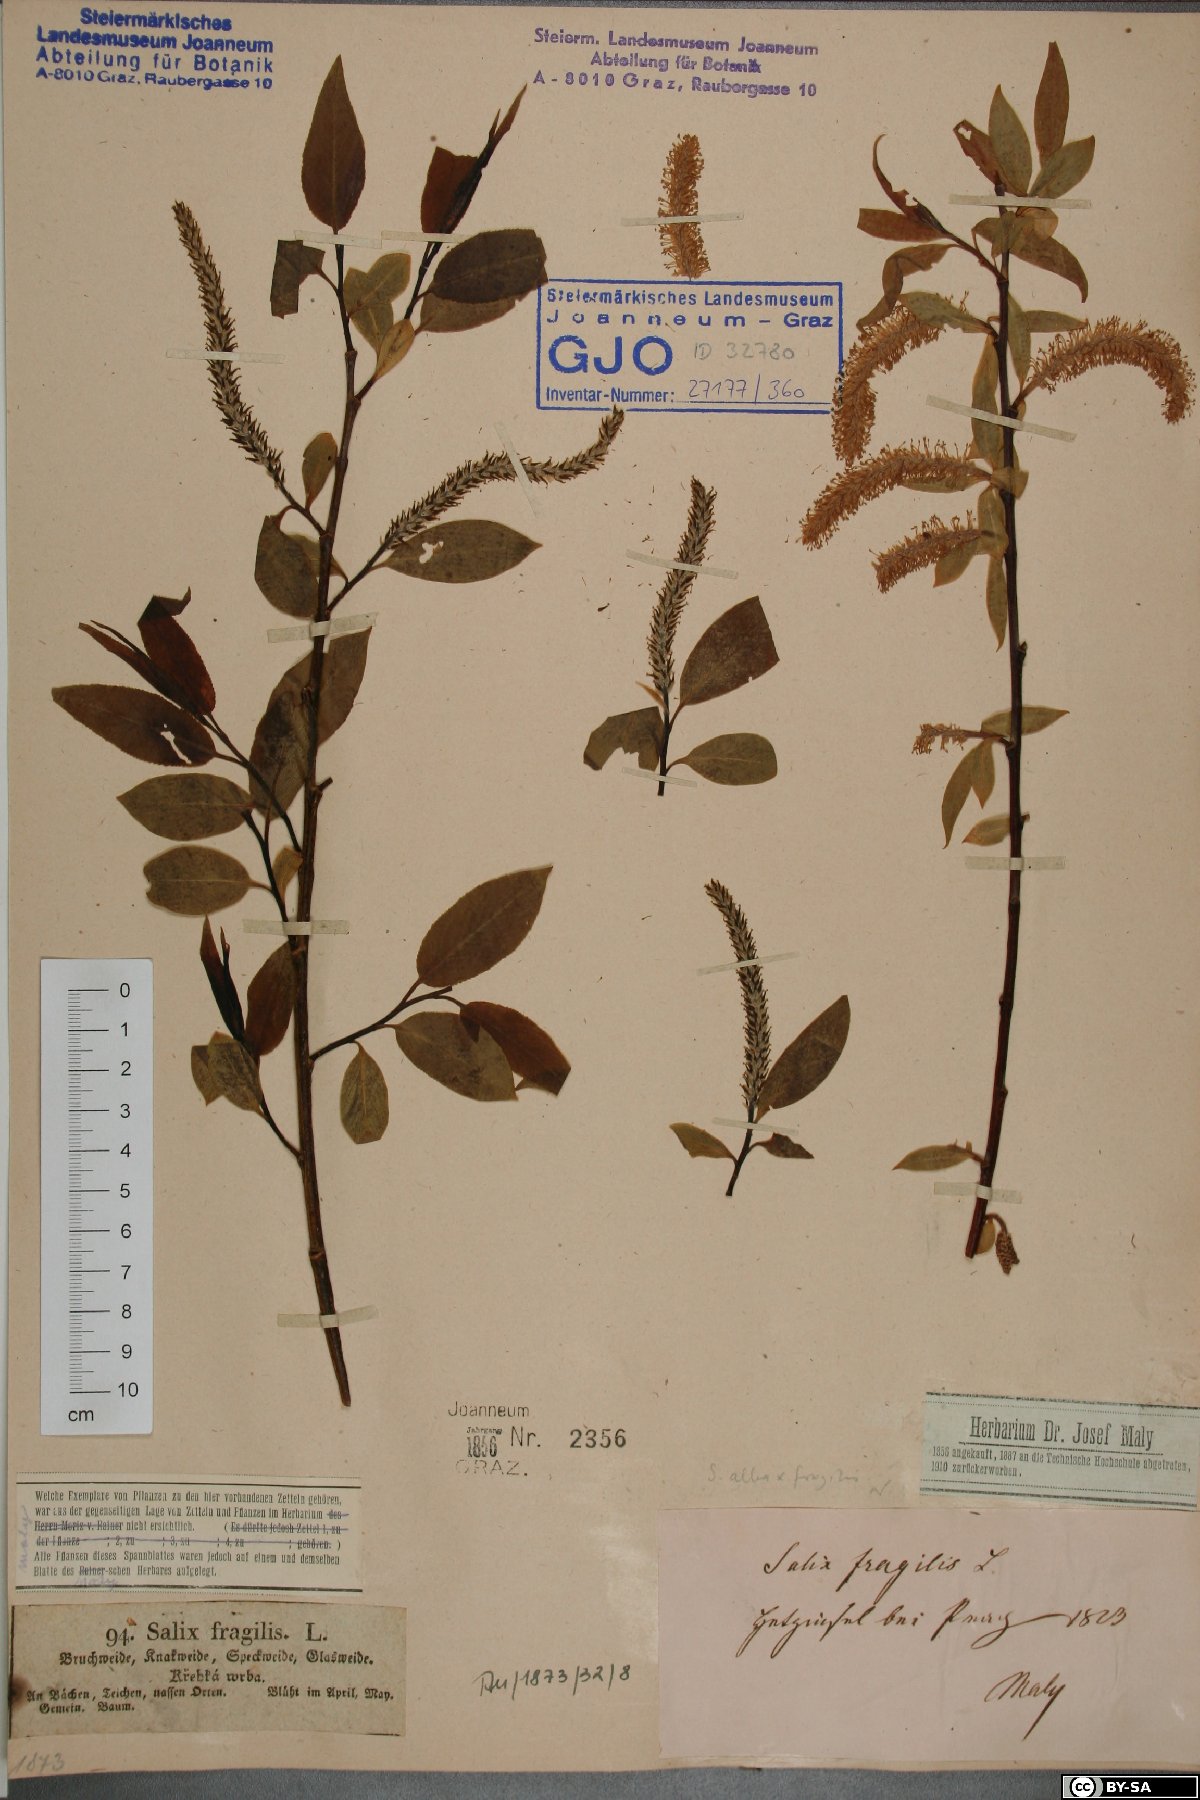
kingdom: Plantae
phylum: Tracheophyta
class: Magnoliopsida
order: Malpighiales
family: Salicaceae
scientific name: Salicaceae
